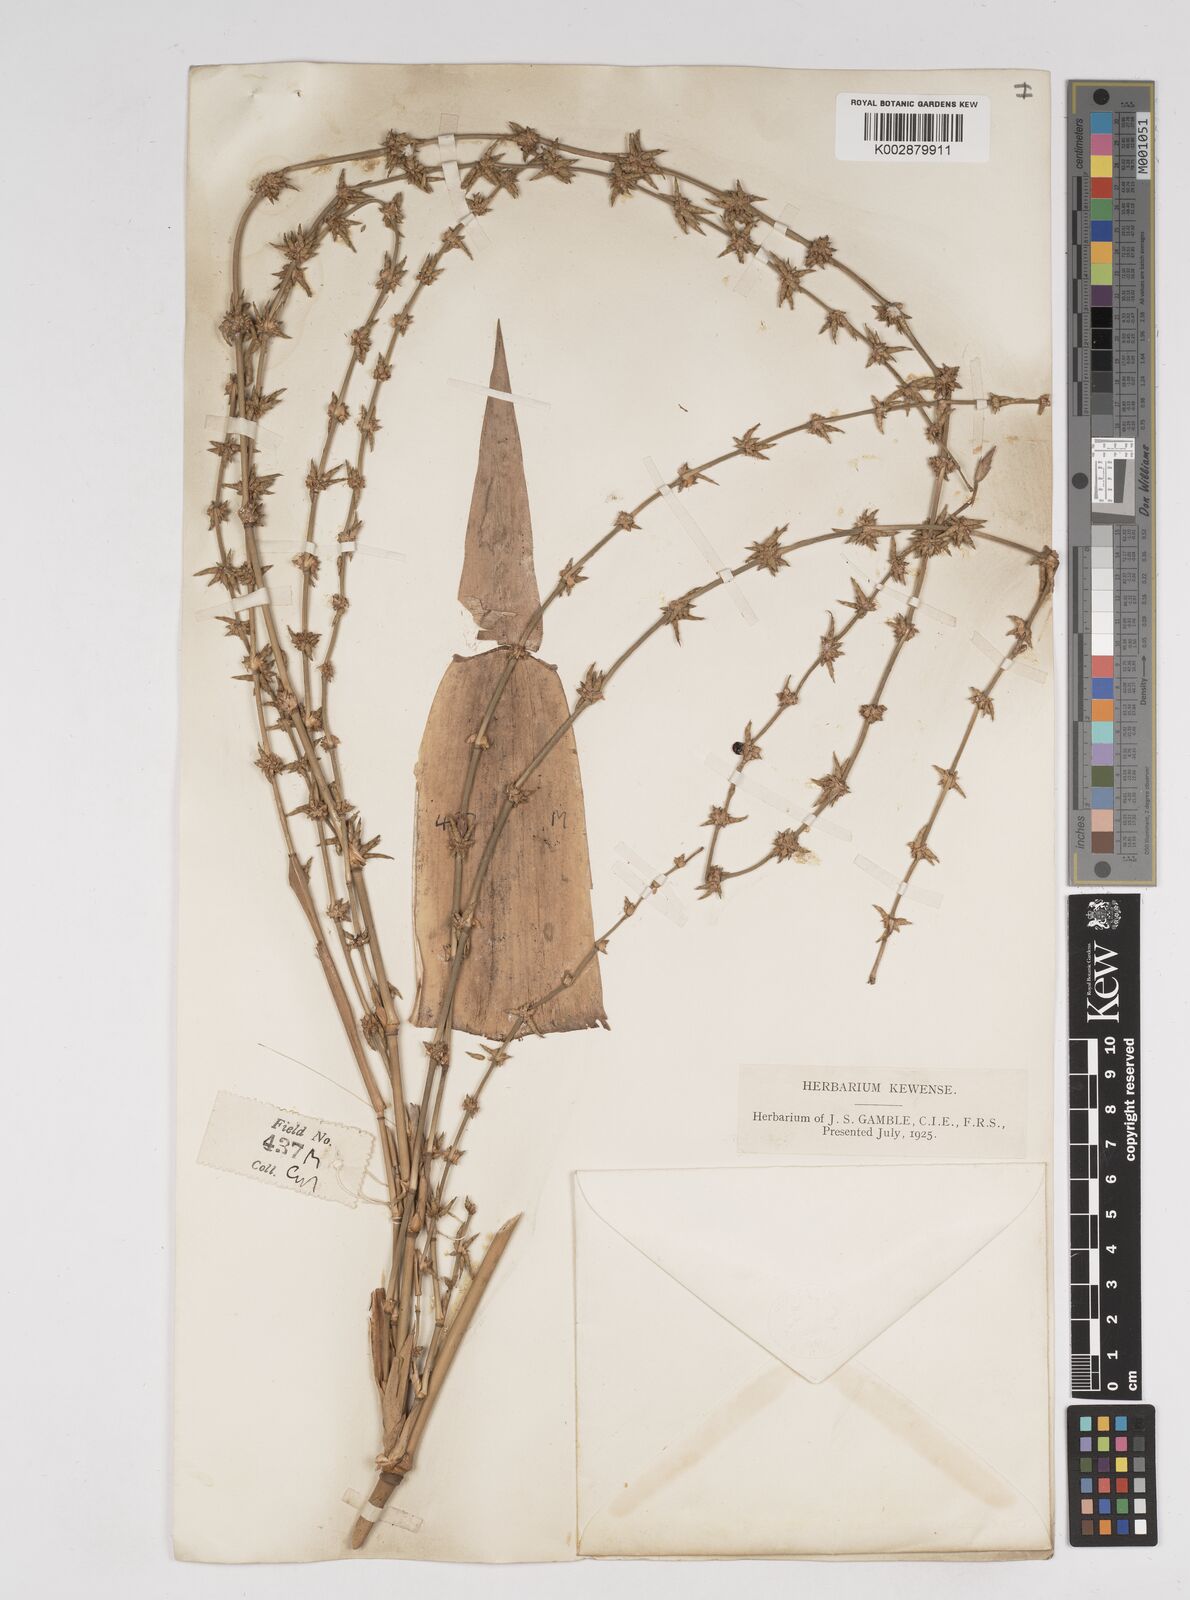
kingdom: Plantae
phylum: Tracheophyta
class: Liliopsida
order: Poales
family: Poaceae
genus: Gigantochloa
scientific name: Gigantochloa nigrociliata
